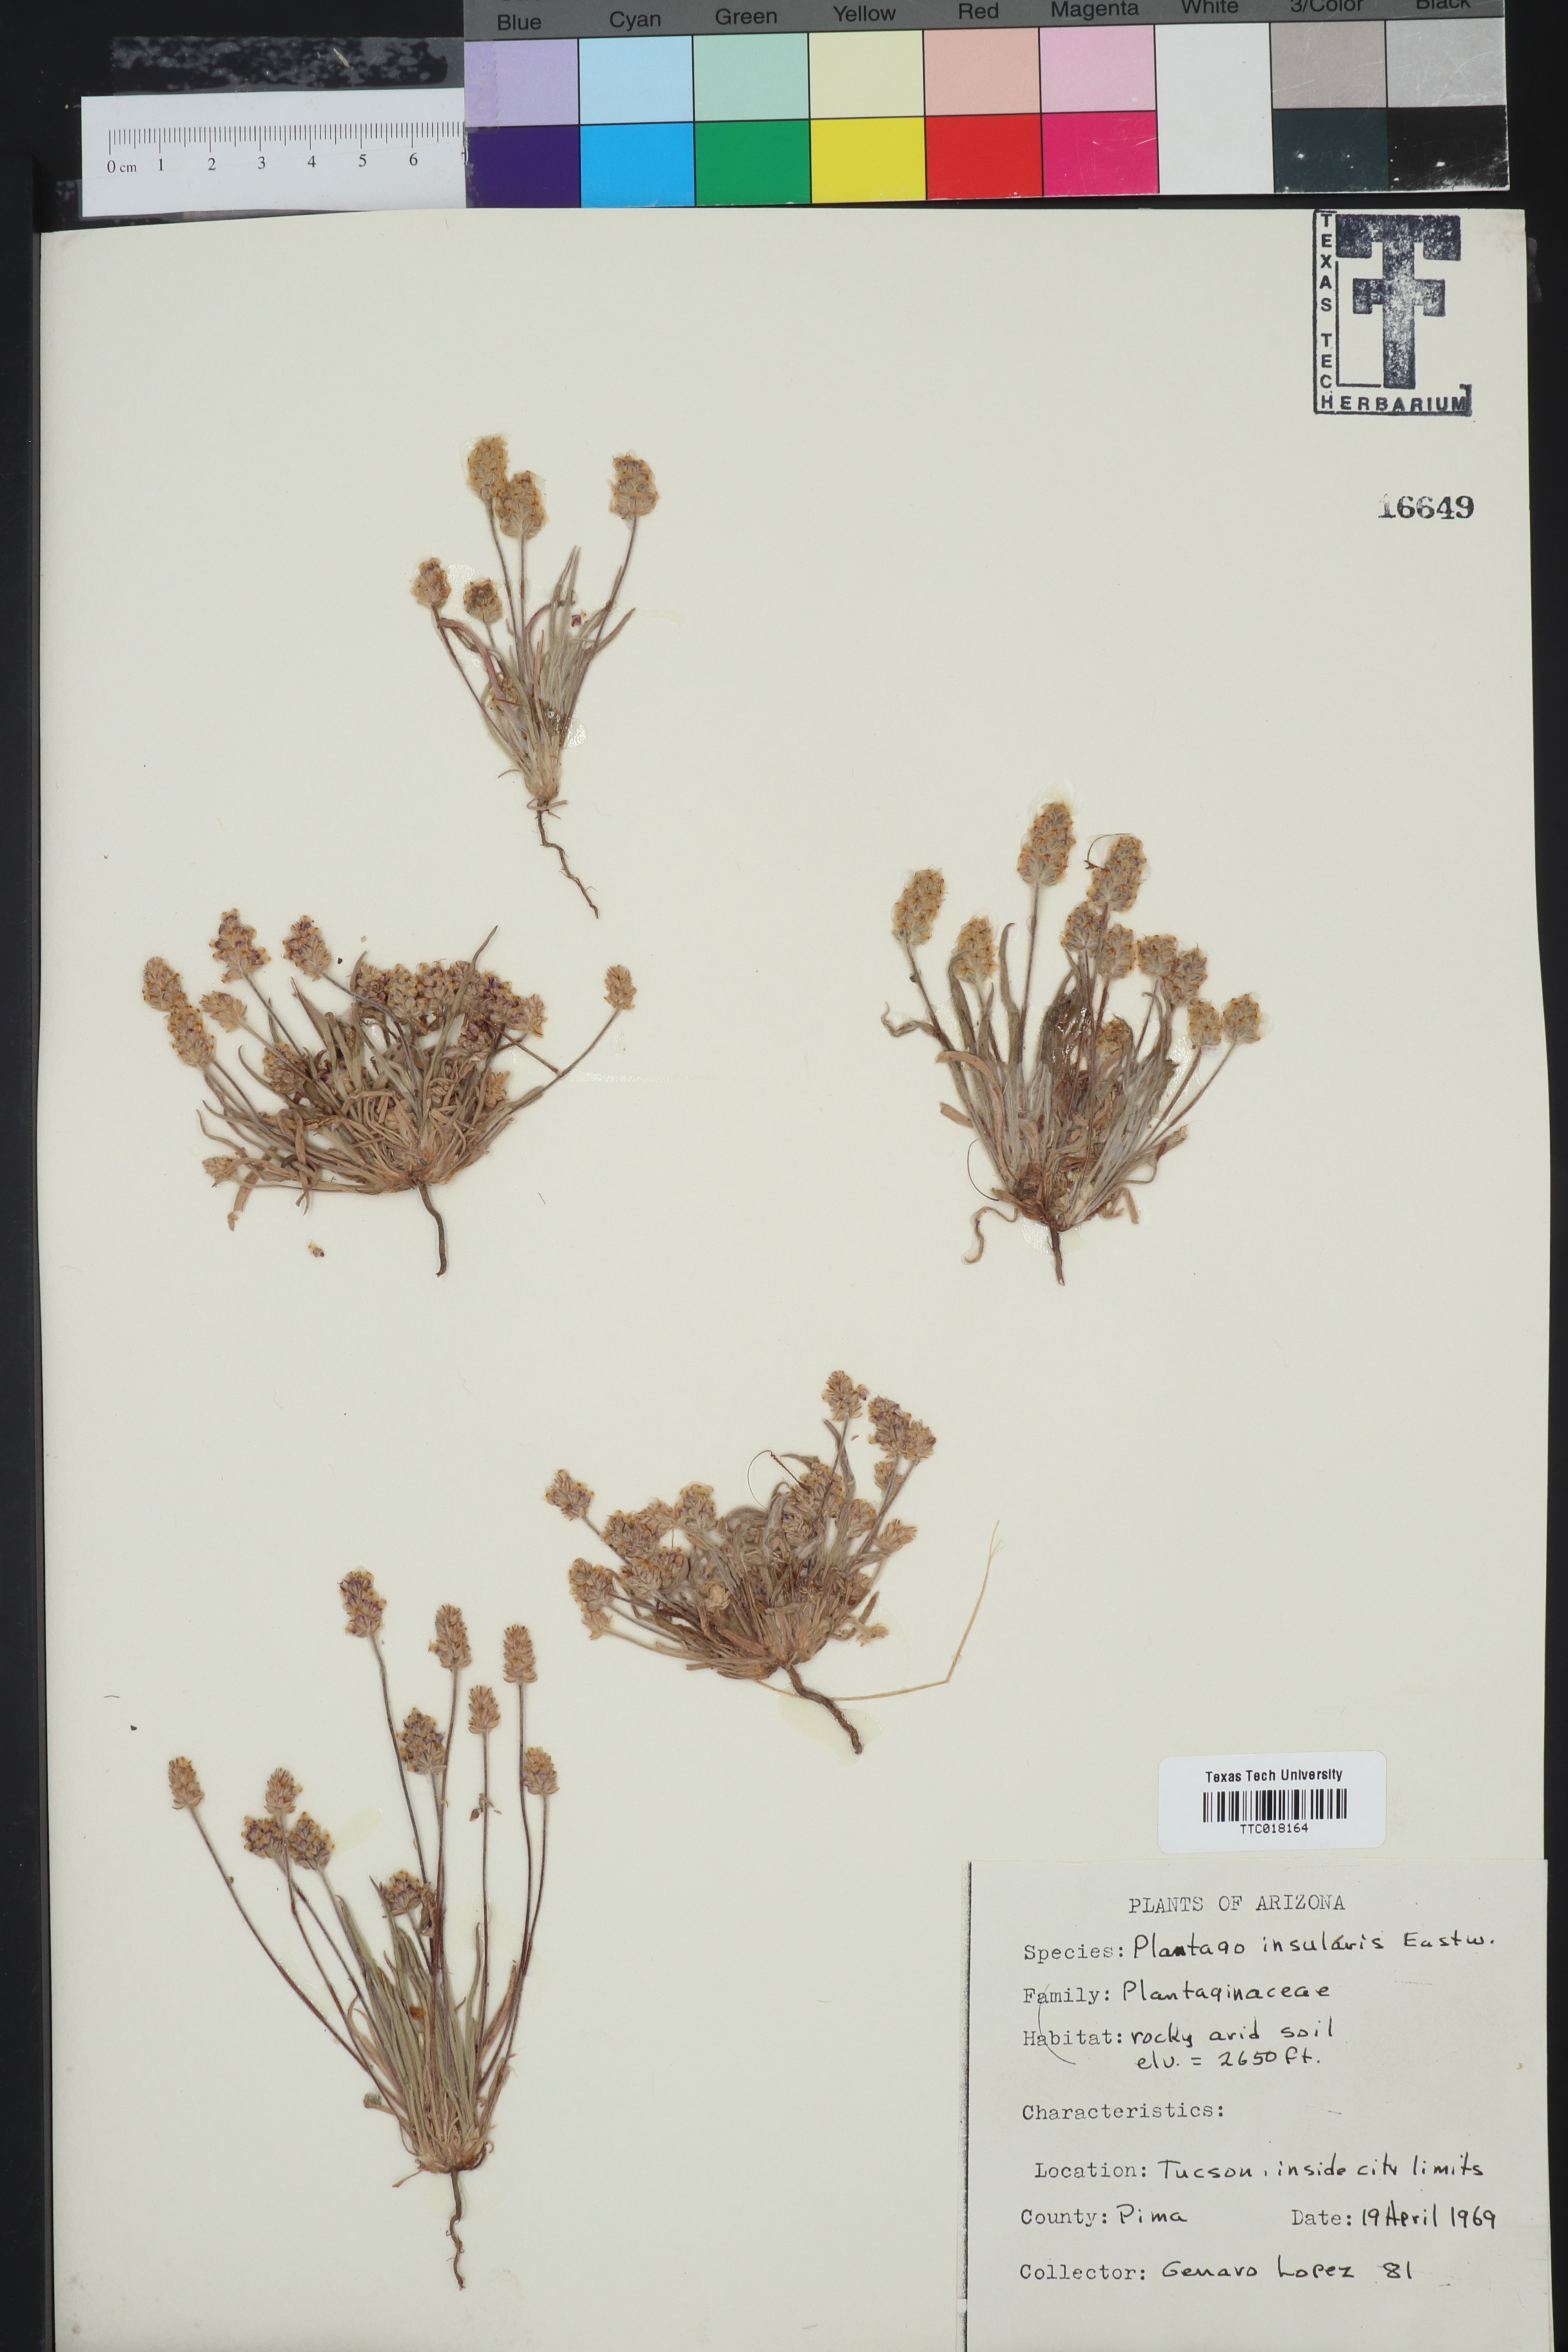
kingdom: Plantae
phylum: Tracheophyta
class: Magnoliopsida
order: Lamiales
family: Plantaginaceae
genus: Plantago
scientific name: Plantago ovata
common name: Blond plantain
